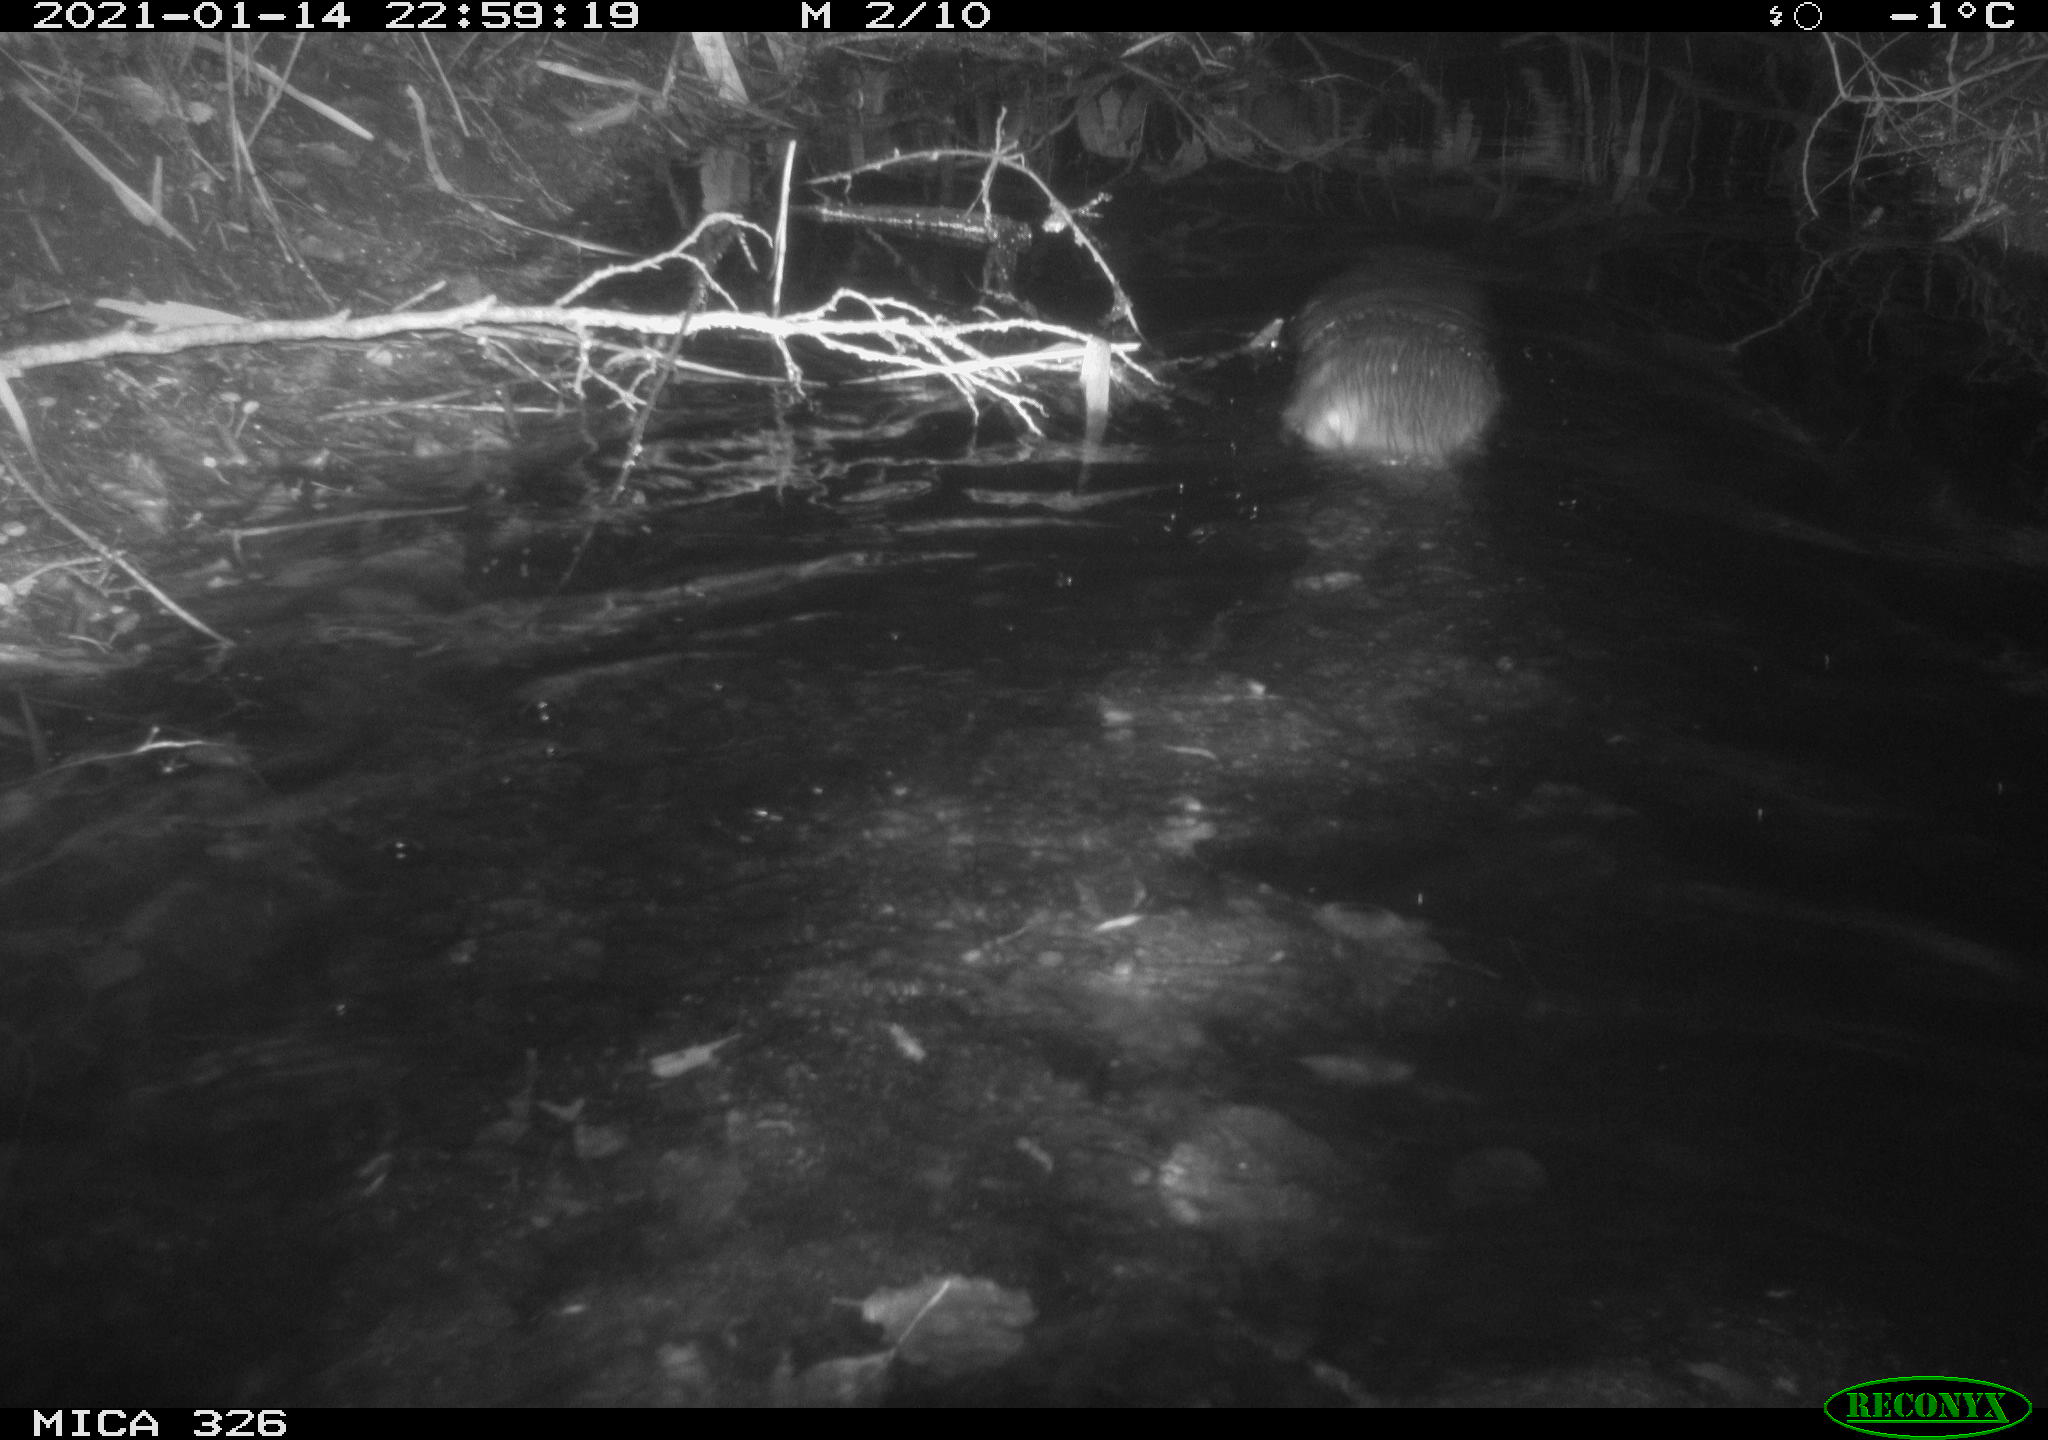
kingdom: Animalia
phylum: Chordata
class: Mammalia
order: Carnivora
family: Mustelidae
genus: Lutra
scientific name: Lutra lutra
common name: European otter
